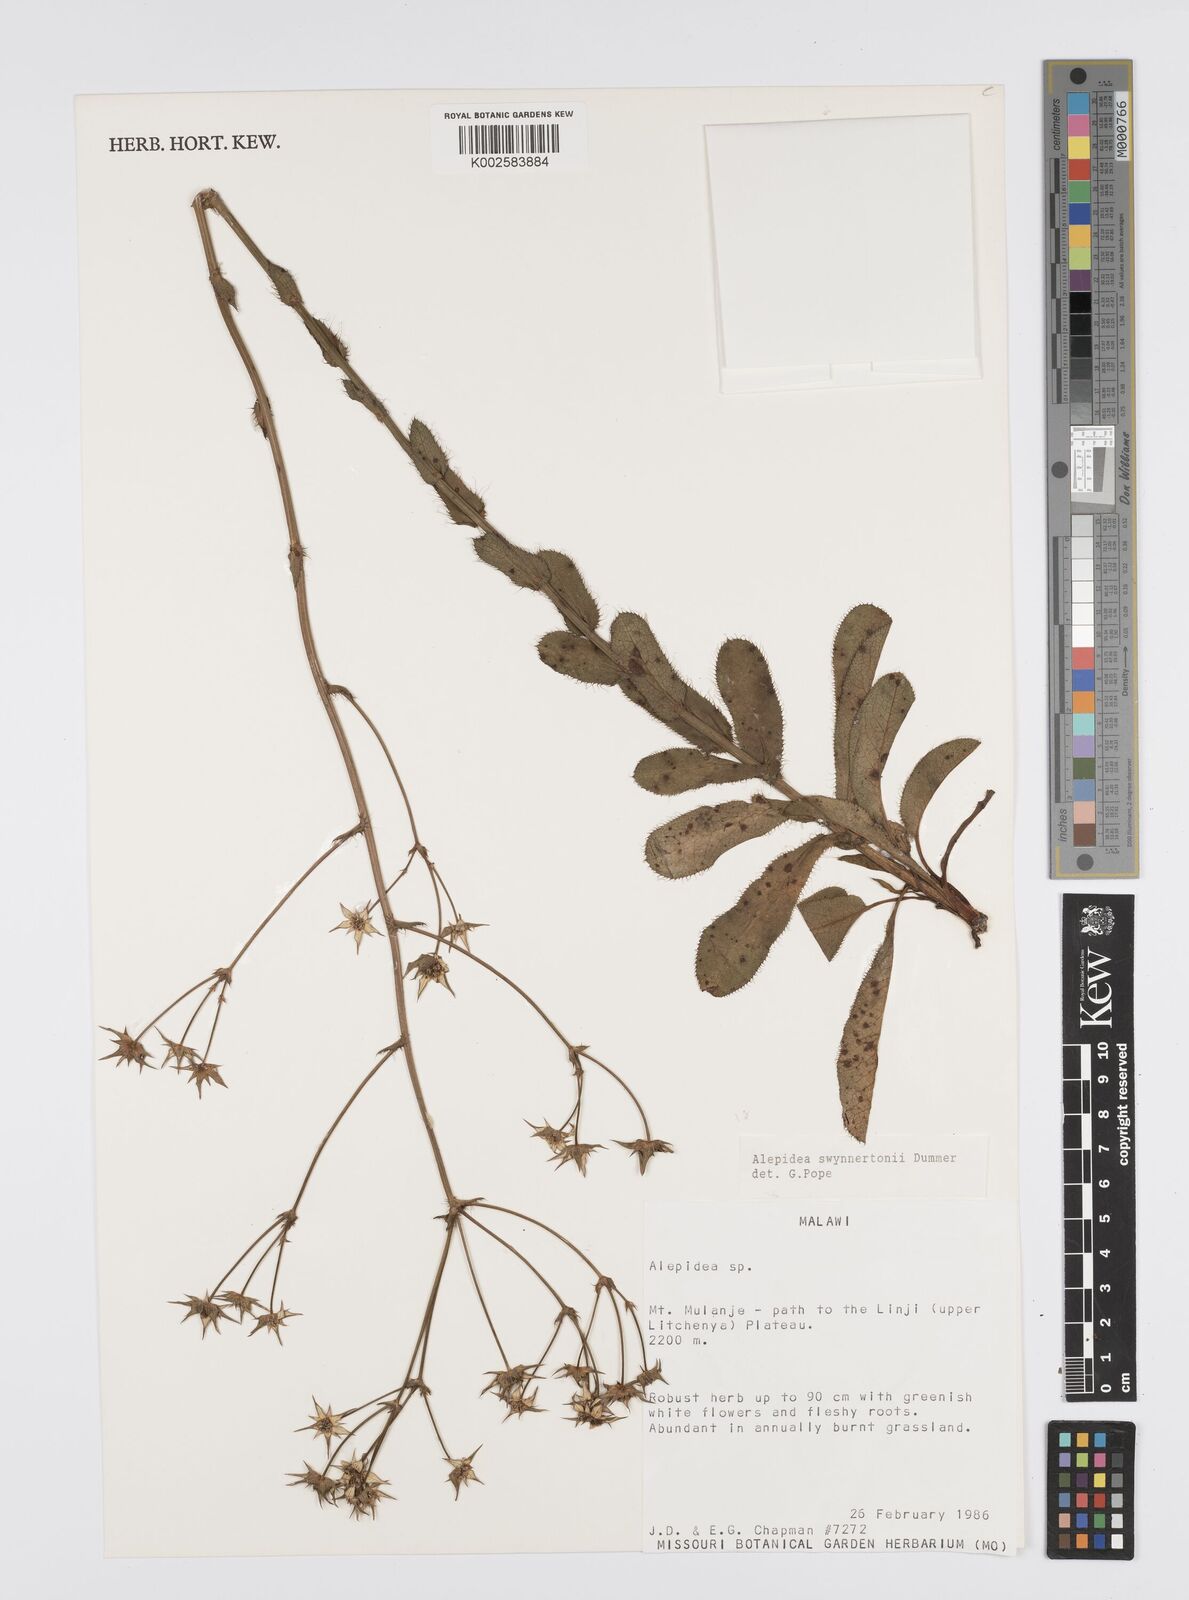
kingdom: Plantae
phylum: Tracheophyta
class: Magnoliopsida
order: Apiales
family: Apiaceae
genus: Alepidea
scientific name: Alepidea peduncularis
